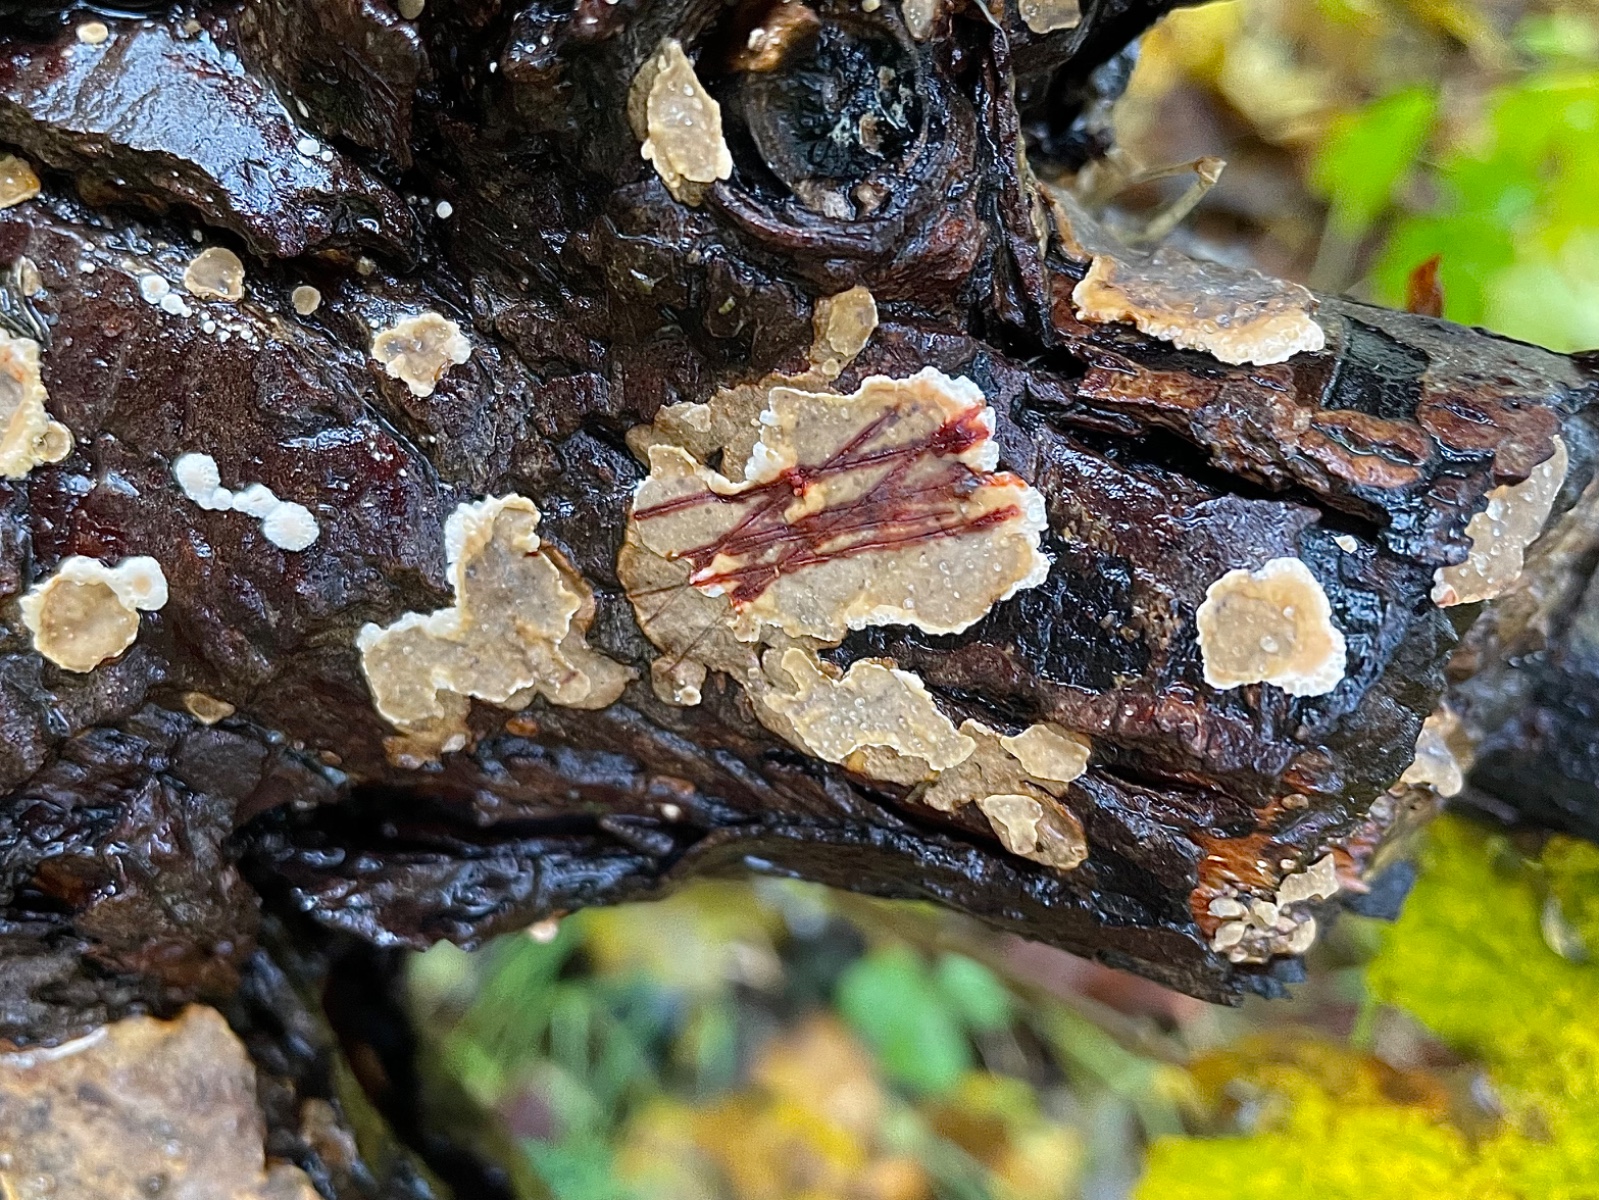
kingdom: Fungi
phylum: Basidiomycota
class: Agaricomycetes
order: Russulales
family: Stereaceae
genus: Stereum
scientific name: Stereum rugosum
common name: rynket lædersvamp
